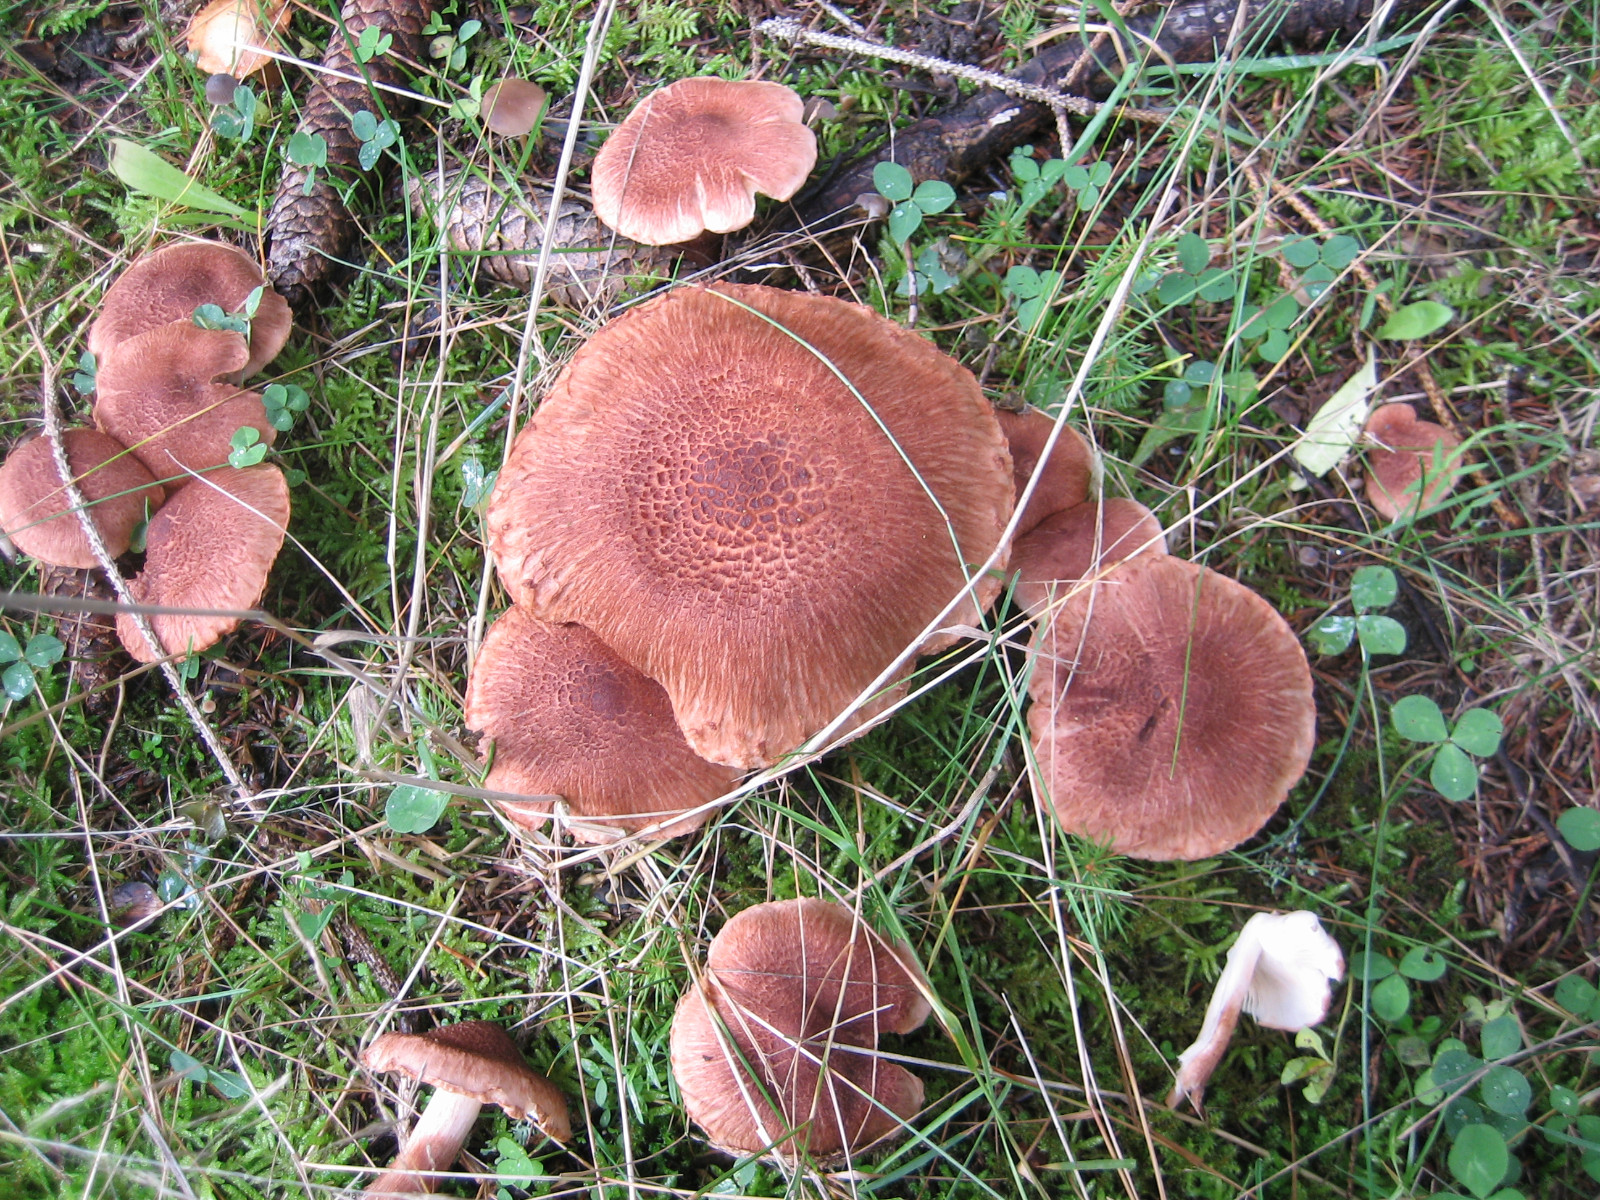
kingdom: Fungi
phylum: Basidiomycota
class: Agaricomycetes
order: Agaricales
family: Tricholomataceae
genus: Tricholoma
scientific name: Tricholoma vaccinum
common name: ko-ridderhat
